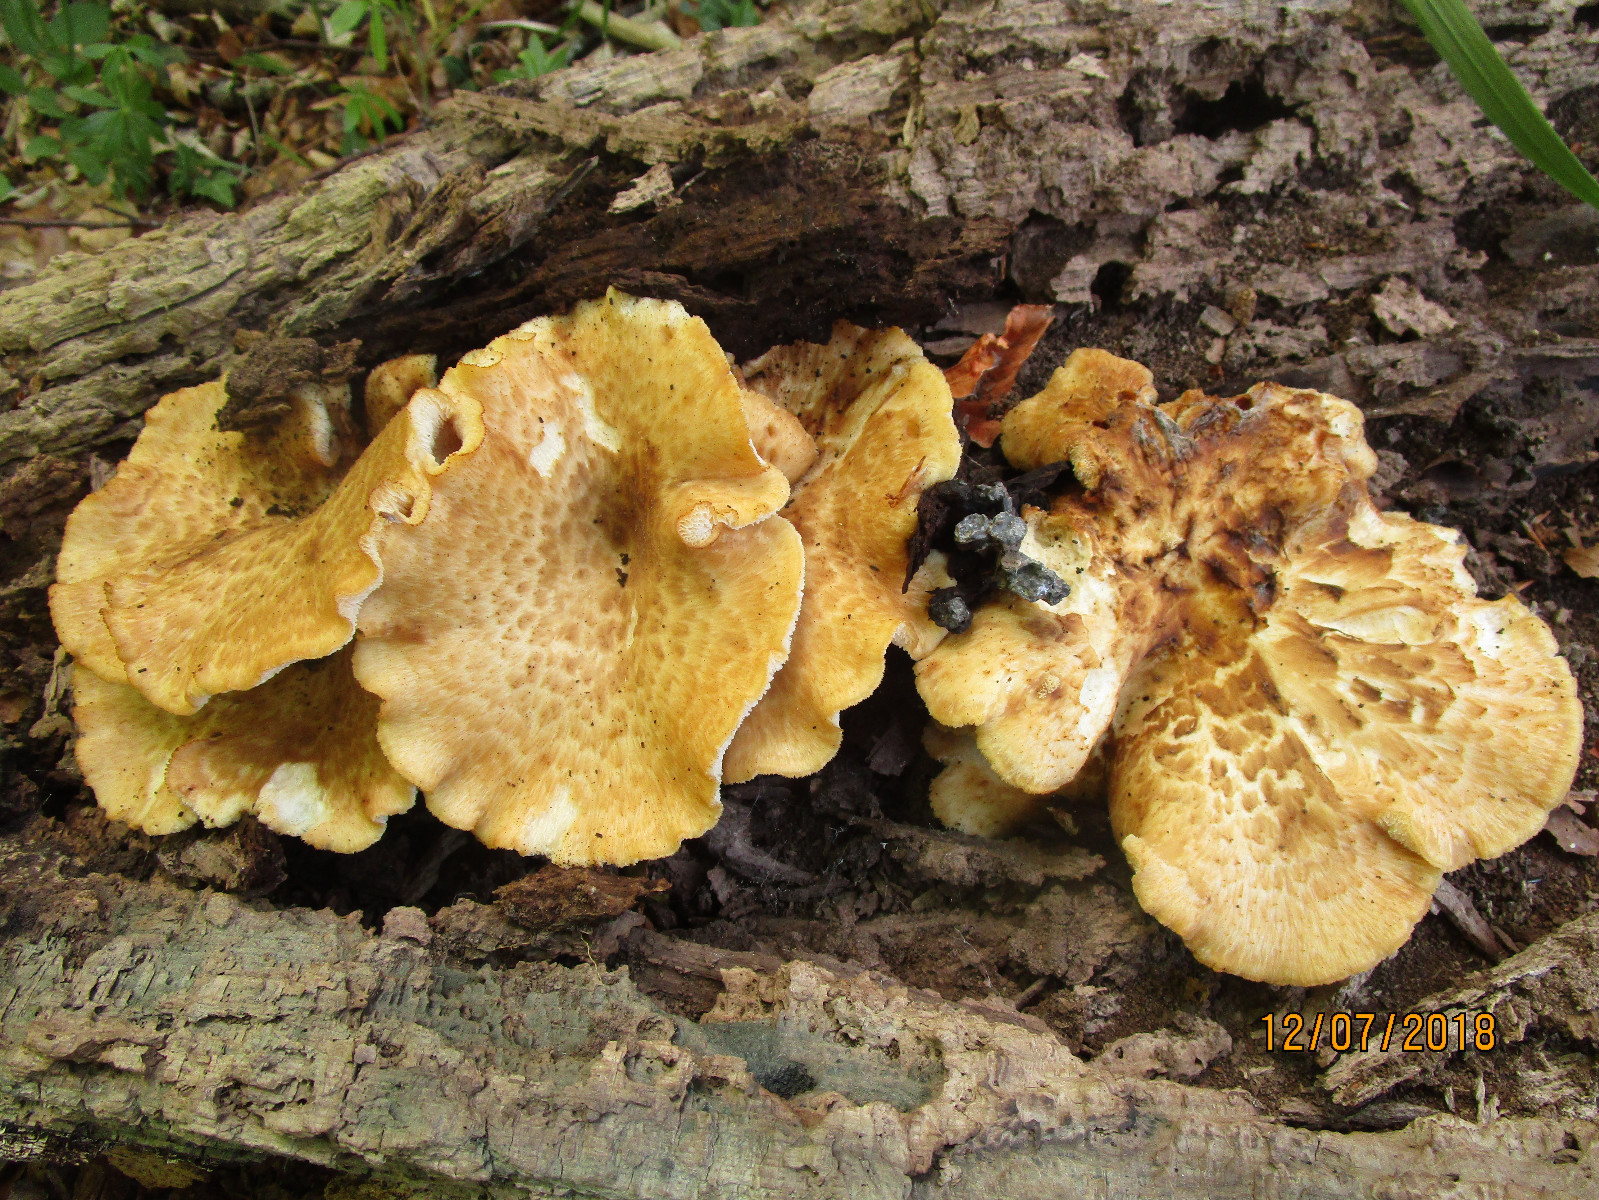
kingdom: Fungi
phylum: Basidiomycota
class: Agaricomycetes
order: Polyporales
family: Polyporaceae
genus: Polyporus
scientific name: Polyporus tuberaster
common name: knoldet stilkporesvamp
